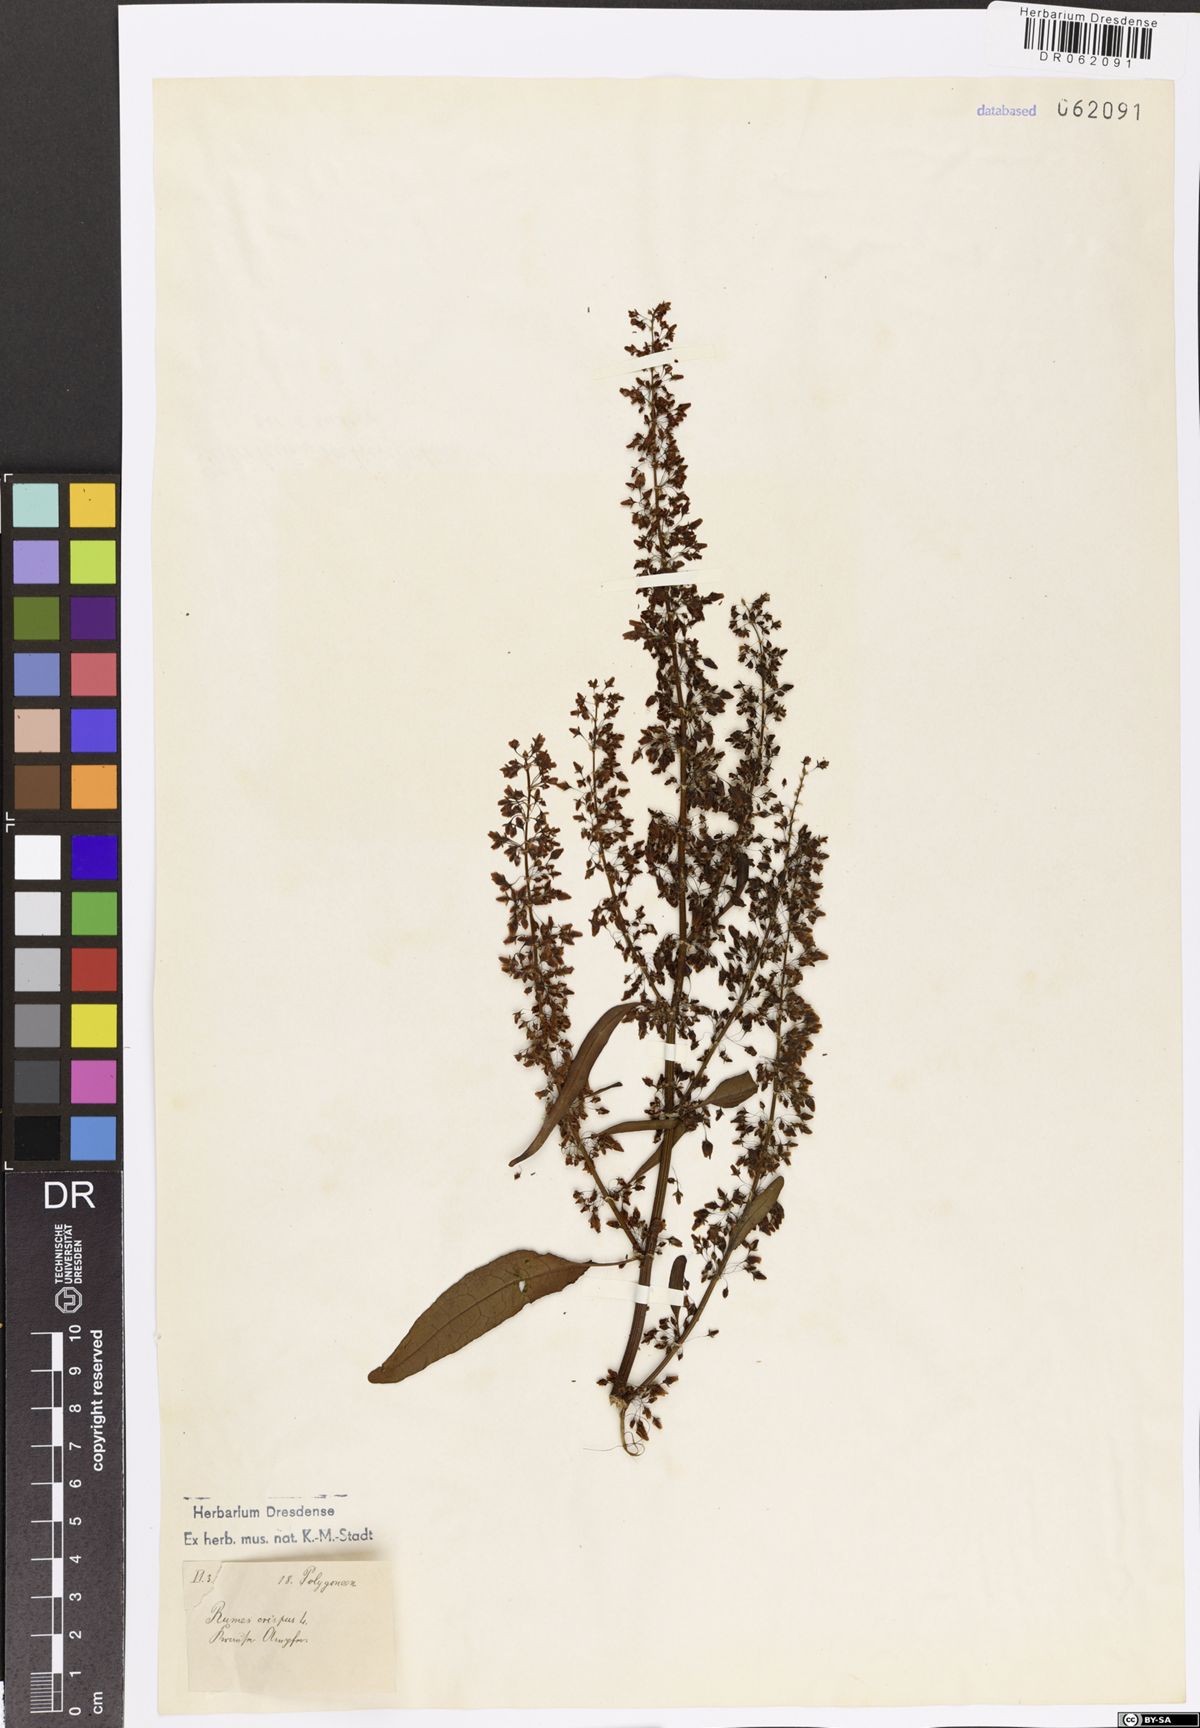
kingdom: Plantae
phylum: Tracheophyta
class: Magnoliopsida
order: Caryophyllales
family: Polygonaceae
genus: Rumex
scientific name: Rumex crispus
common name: Curled dock
